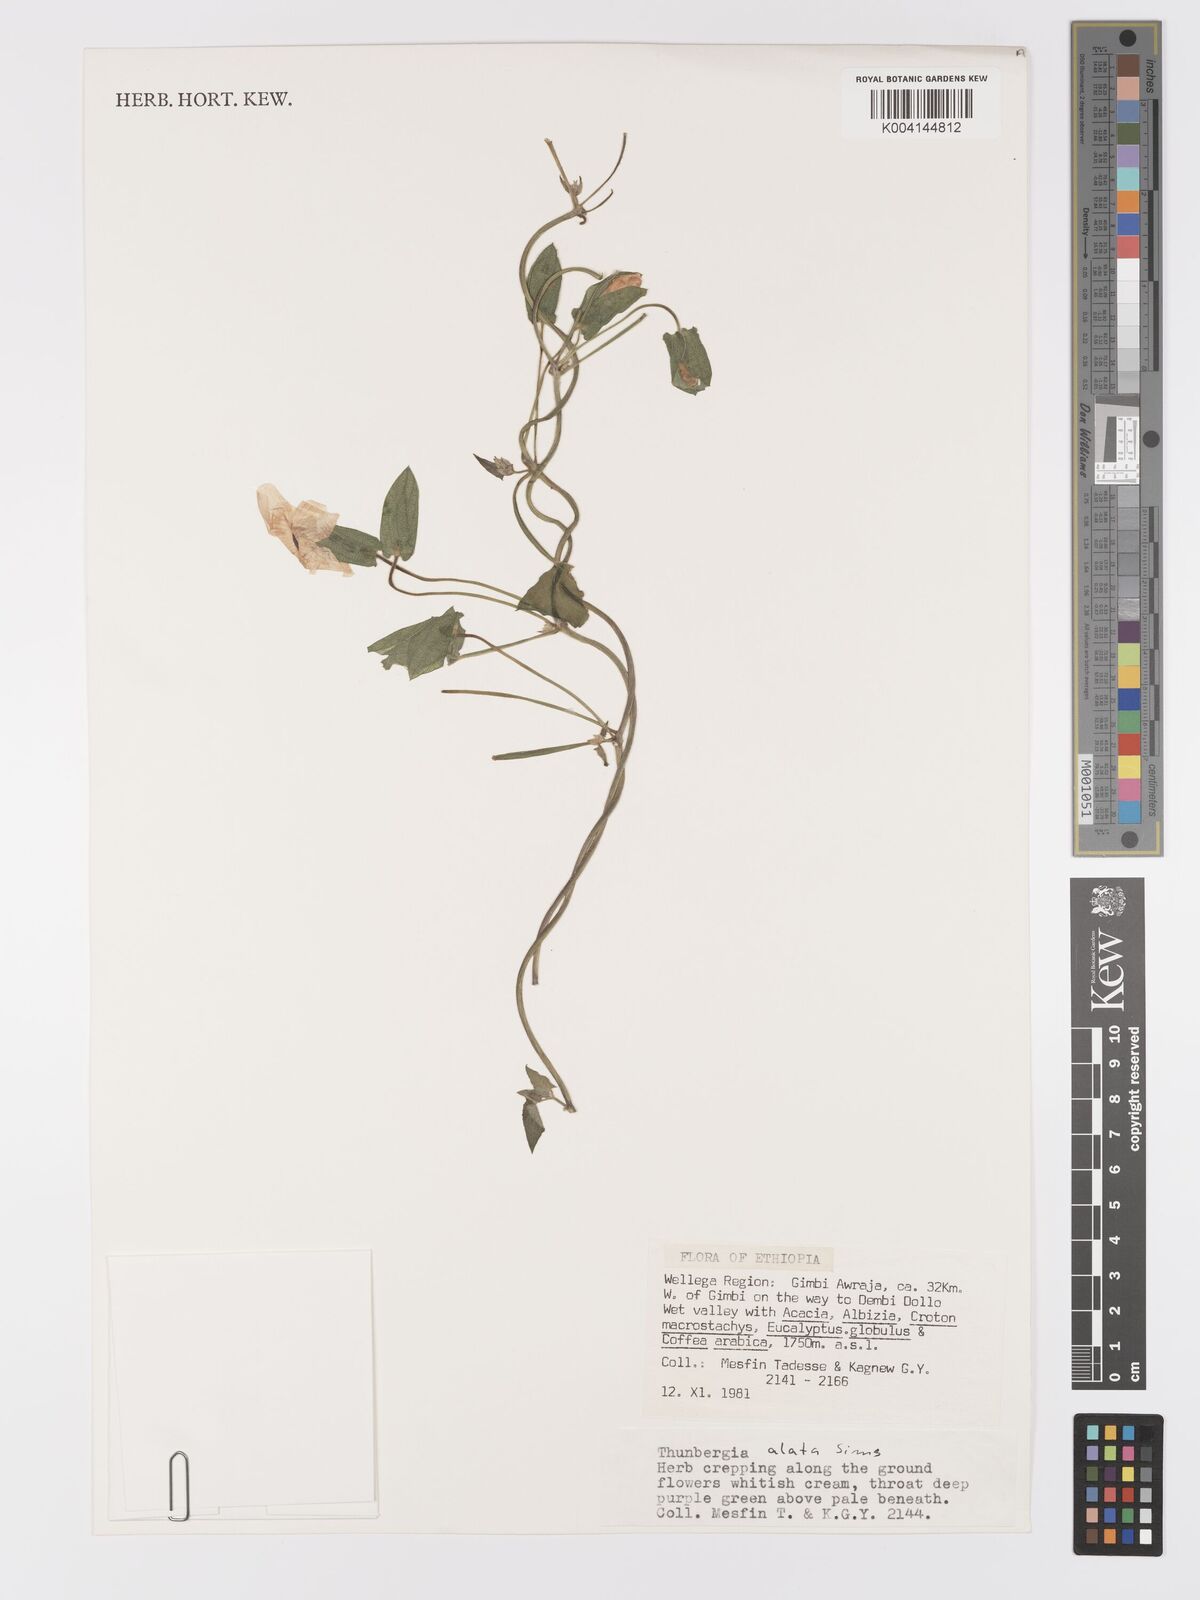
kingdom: Plantae
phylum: Tracheophyta
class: Magnoliopsida
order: Lamiales
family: Acanthaceae
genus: Thunbergia
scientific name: Thunbergia alata
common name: Blackeyed susan vine
